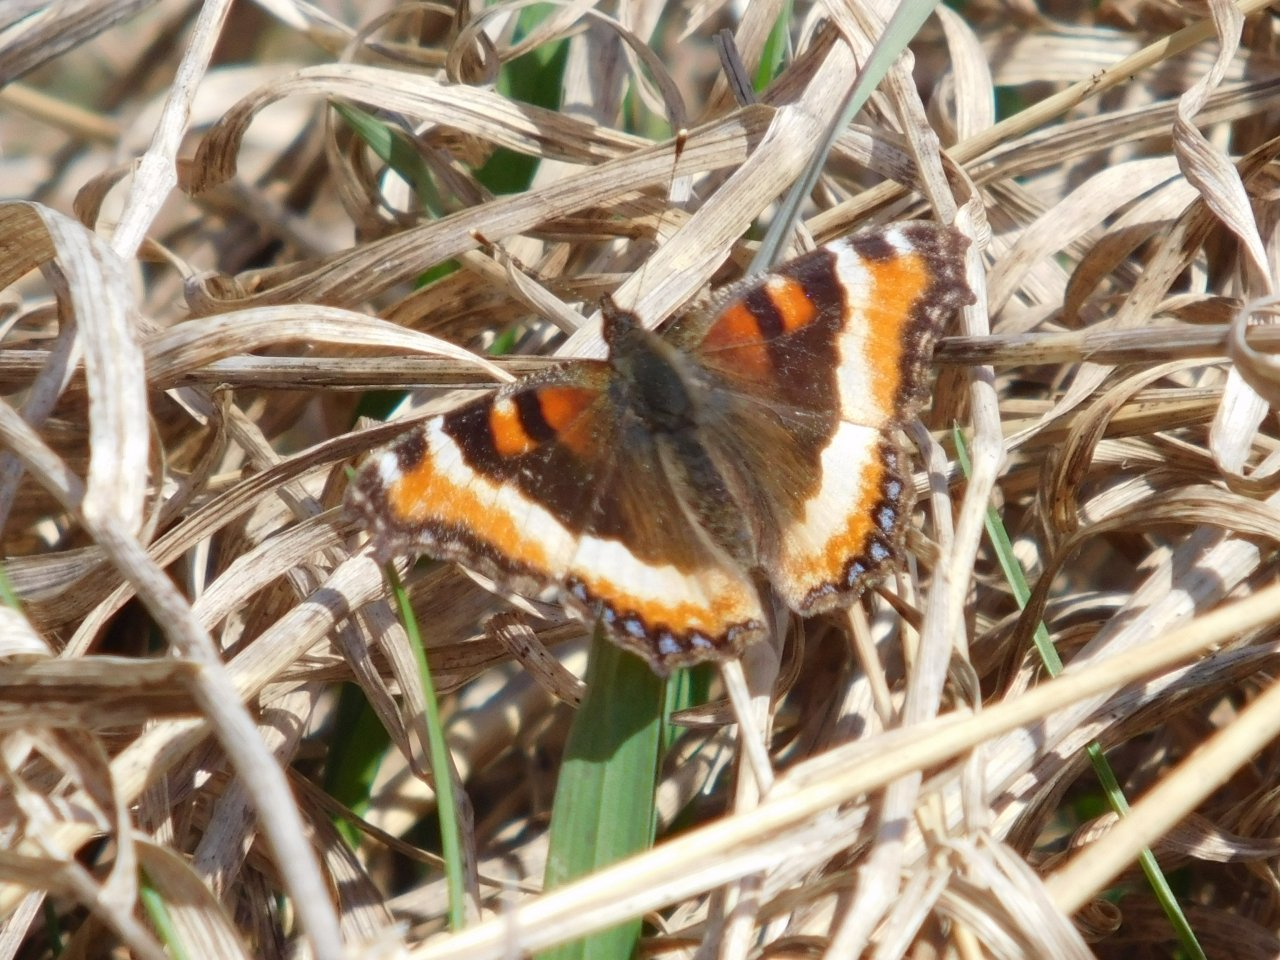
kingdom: Animalia
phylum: Arthropoda
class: Insecta
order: Lepidoptera
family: Nymphalidae
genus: Aglais
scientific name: Aglais milberti
